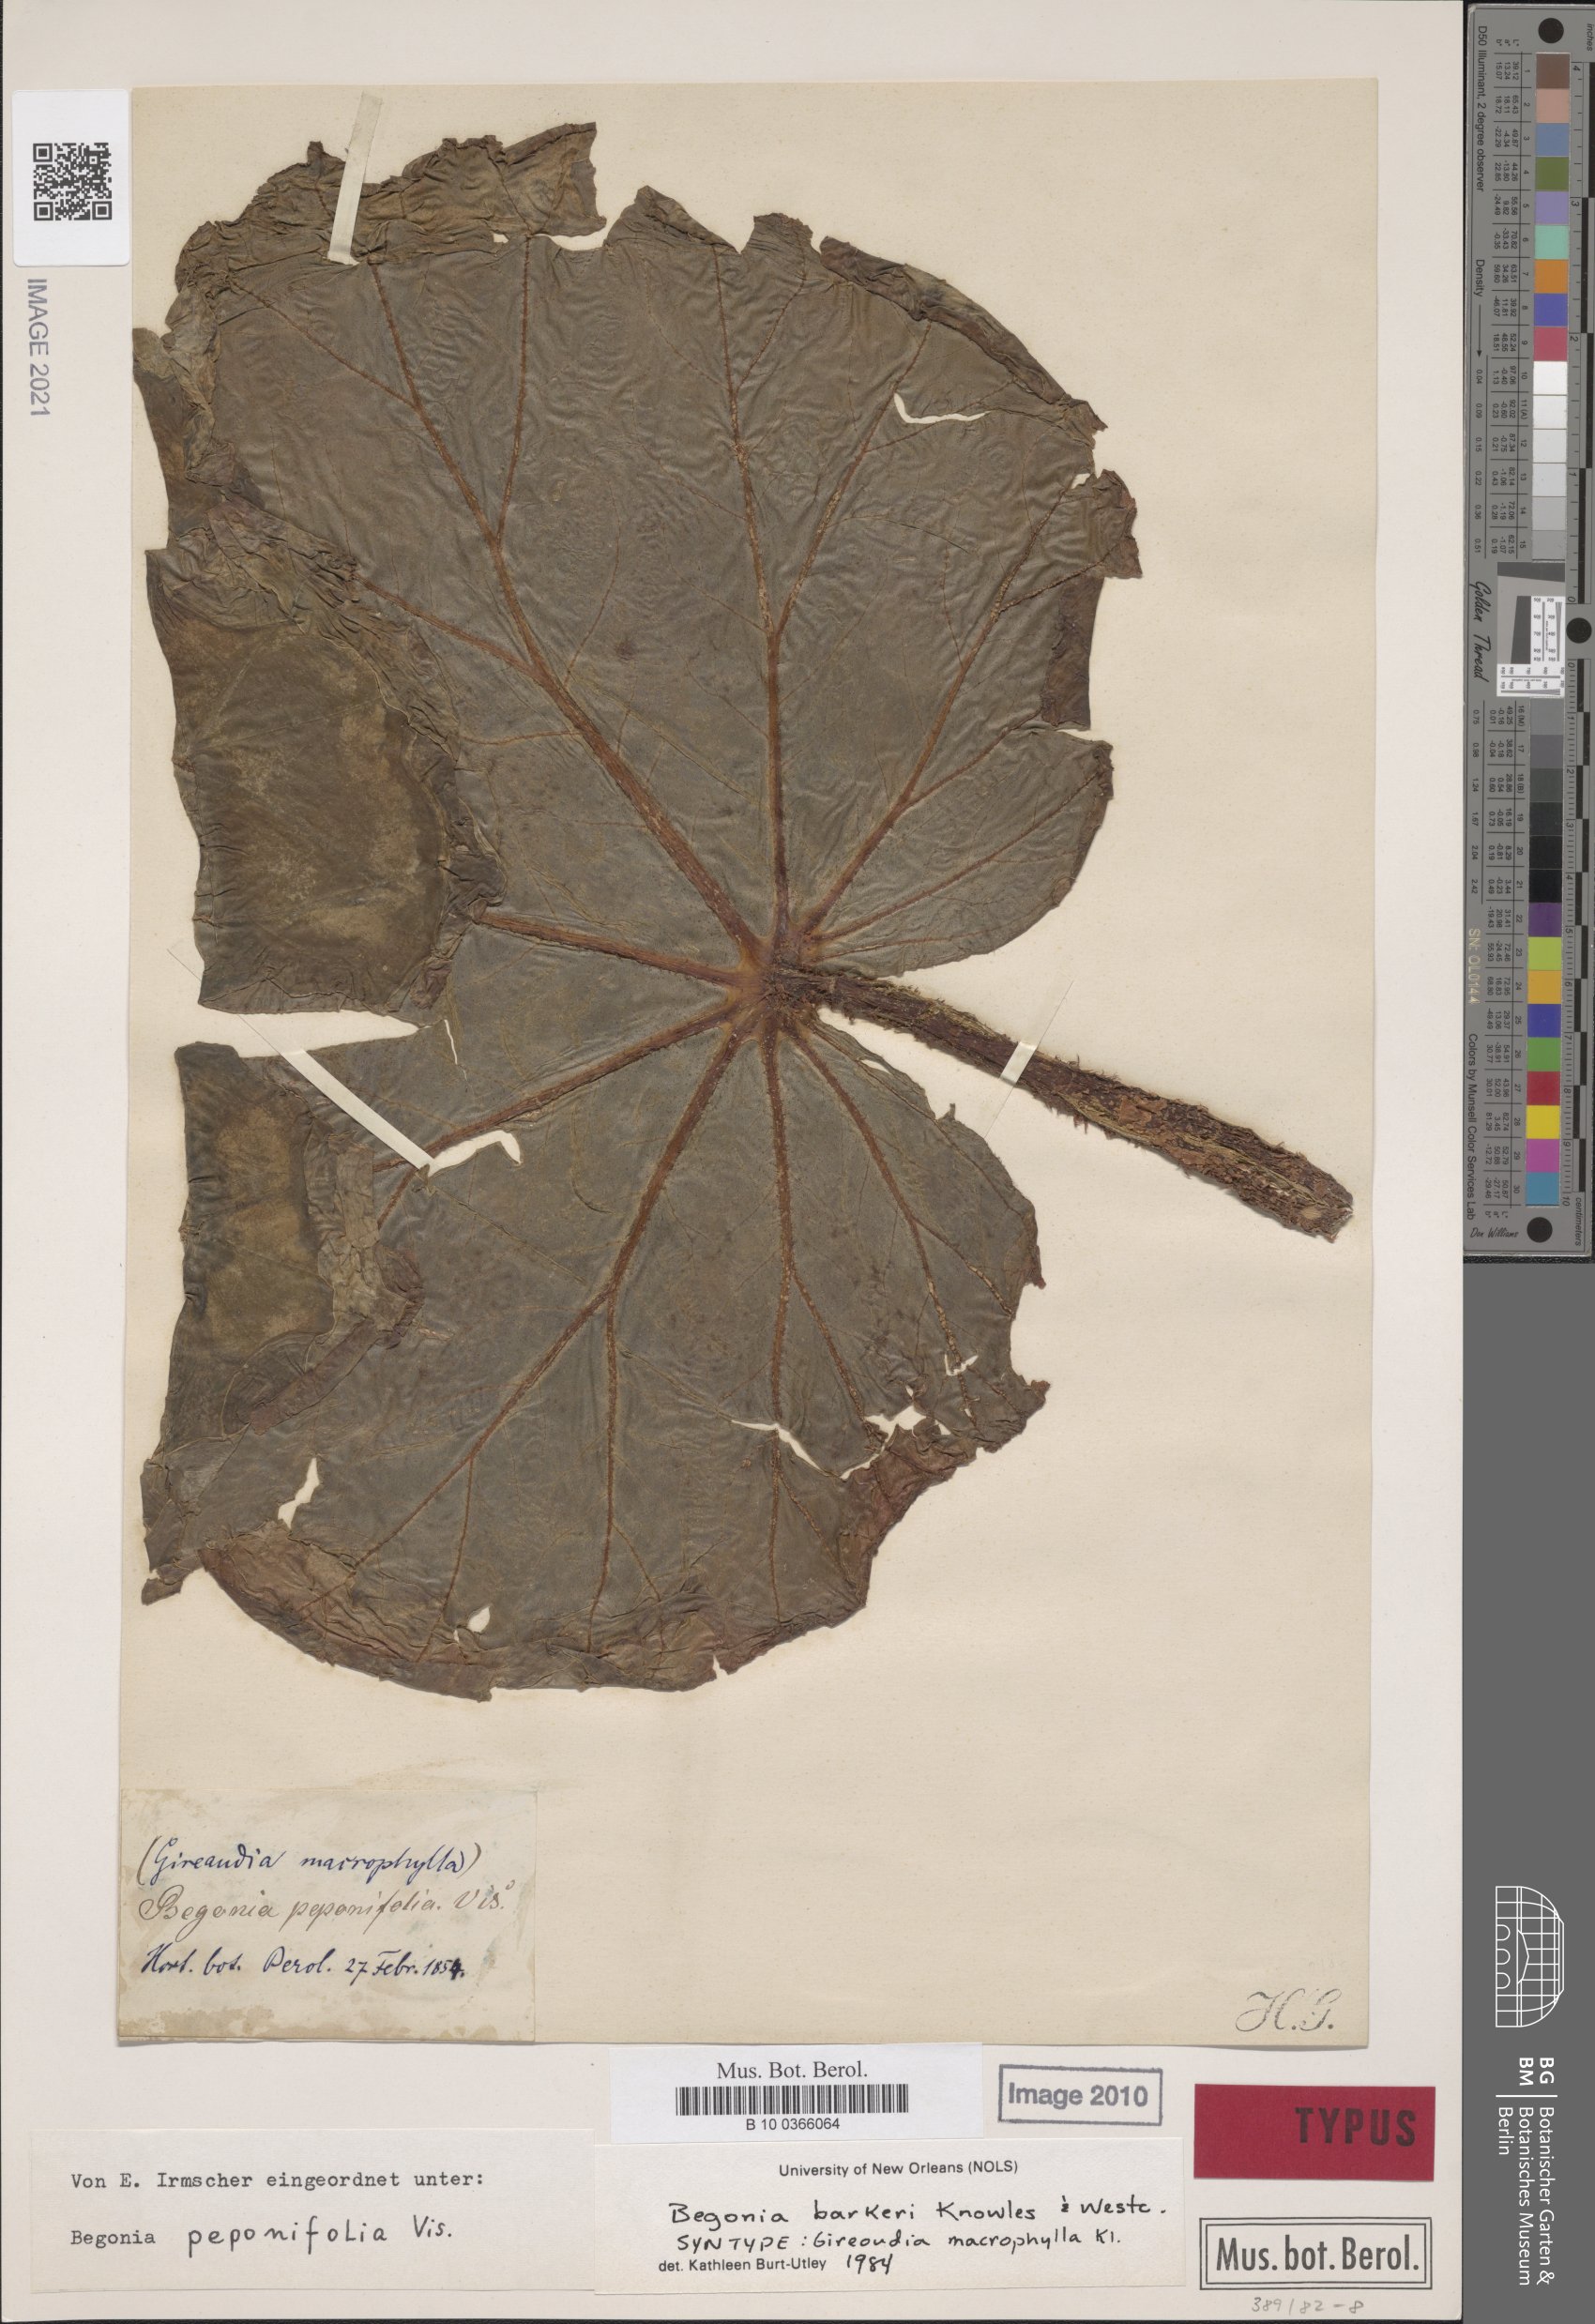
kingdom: Plantae
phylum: Tracheophyta
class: Magnoliopsida
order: Cucurbitales
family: Begoniaceae
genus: Begonia
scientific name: Begonia barkeri
